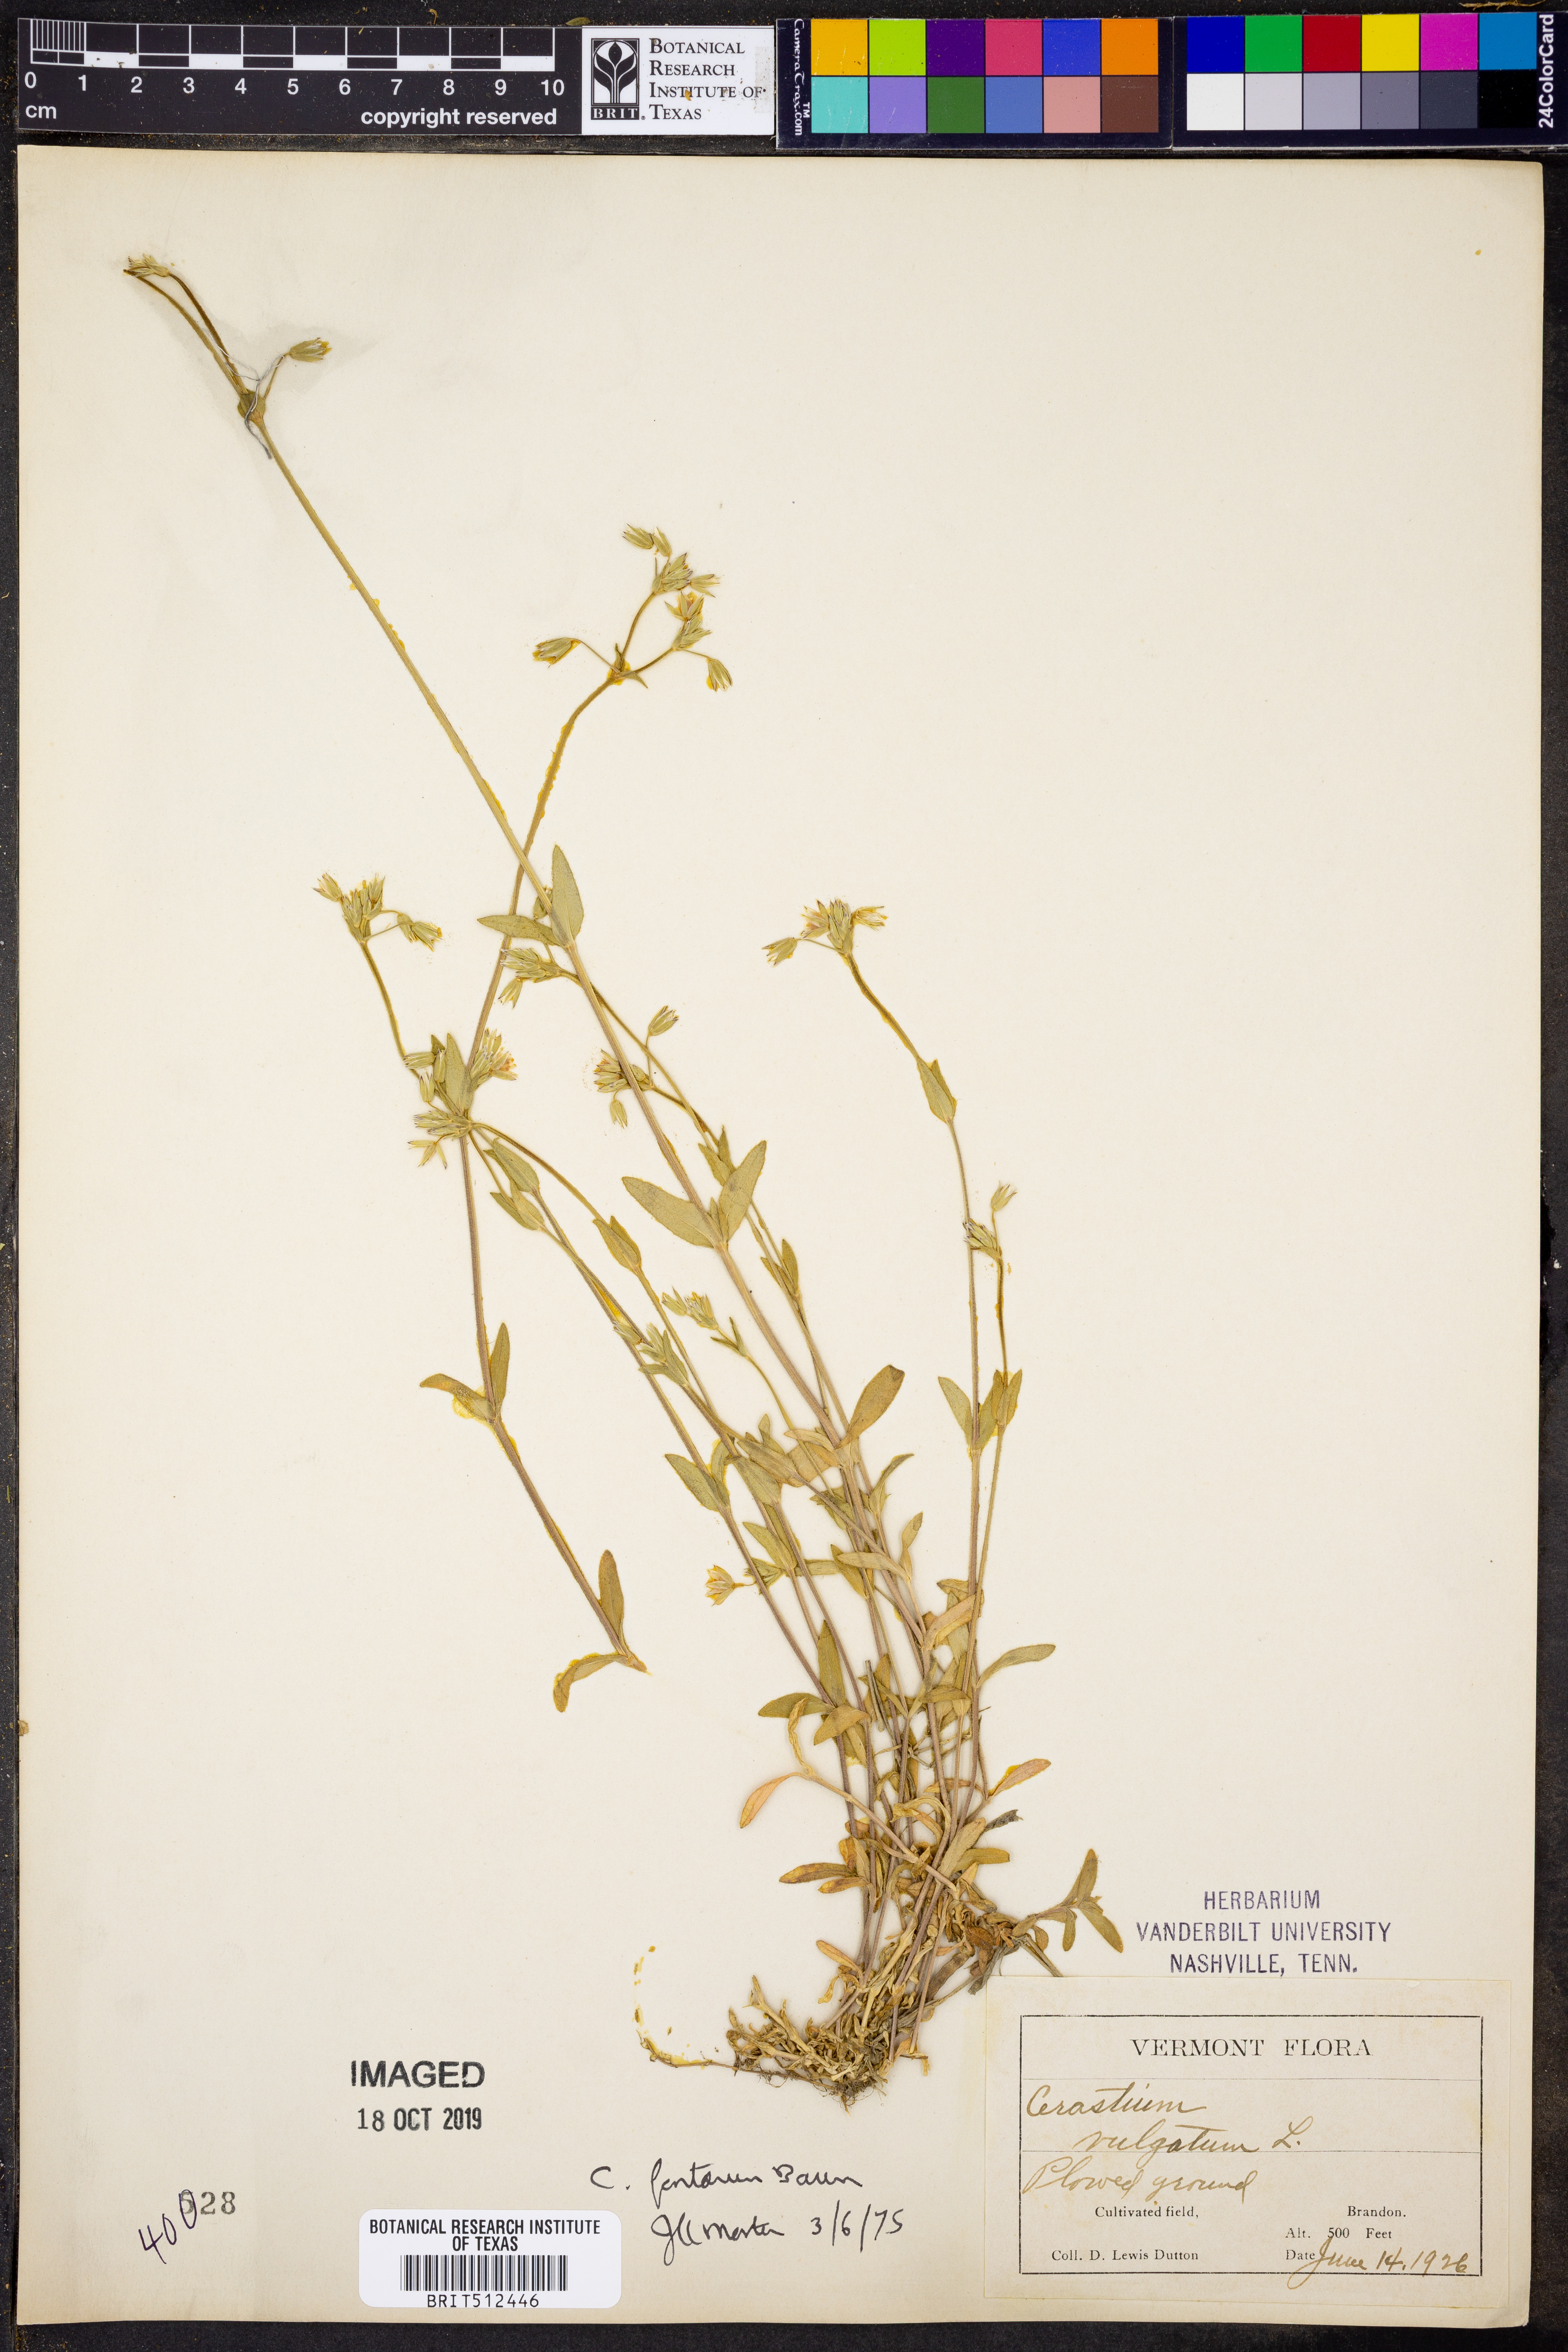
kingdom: Plantae
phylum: Tracheophyta
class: Magnoliopsida
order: Caryophyllales
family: Caryophyllaceae
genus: Cerastium
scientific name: Cerastium fontanum
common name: Common mouse-ear
